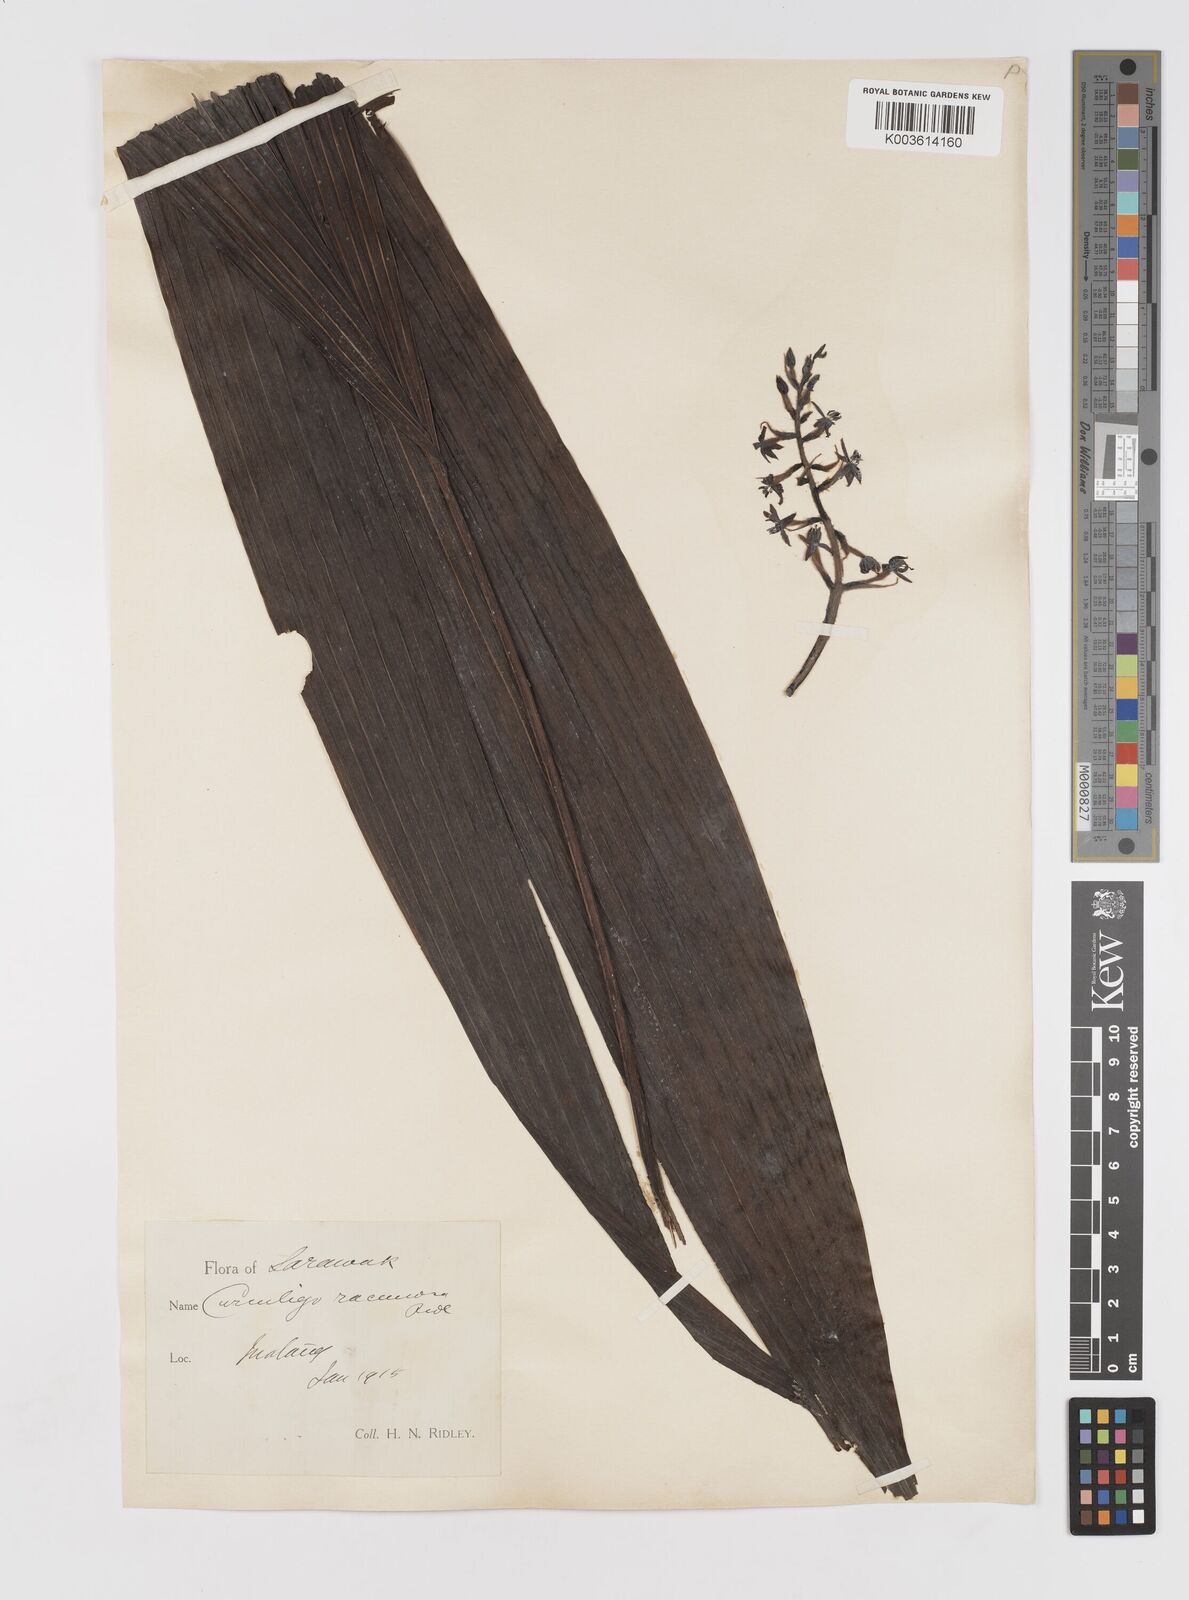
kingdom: Plantae
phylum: Tracheophyta
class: Liliopsida
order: Asparagales
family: Hypoxidaceae
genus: Curculigo
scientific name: Curculigo racemosa
